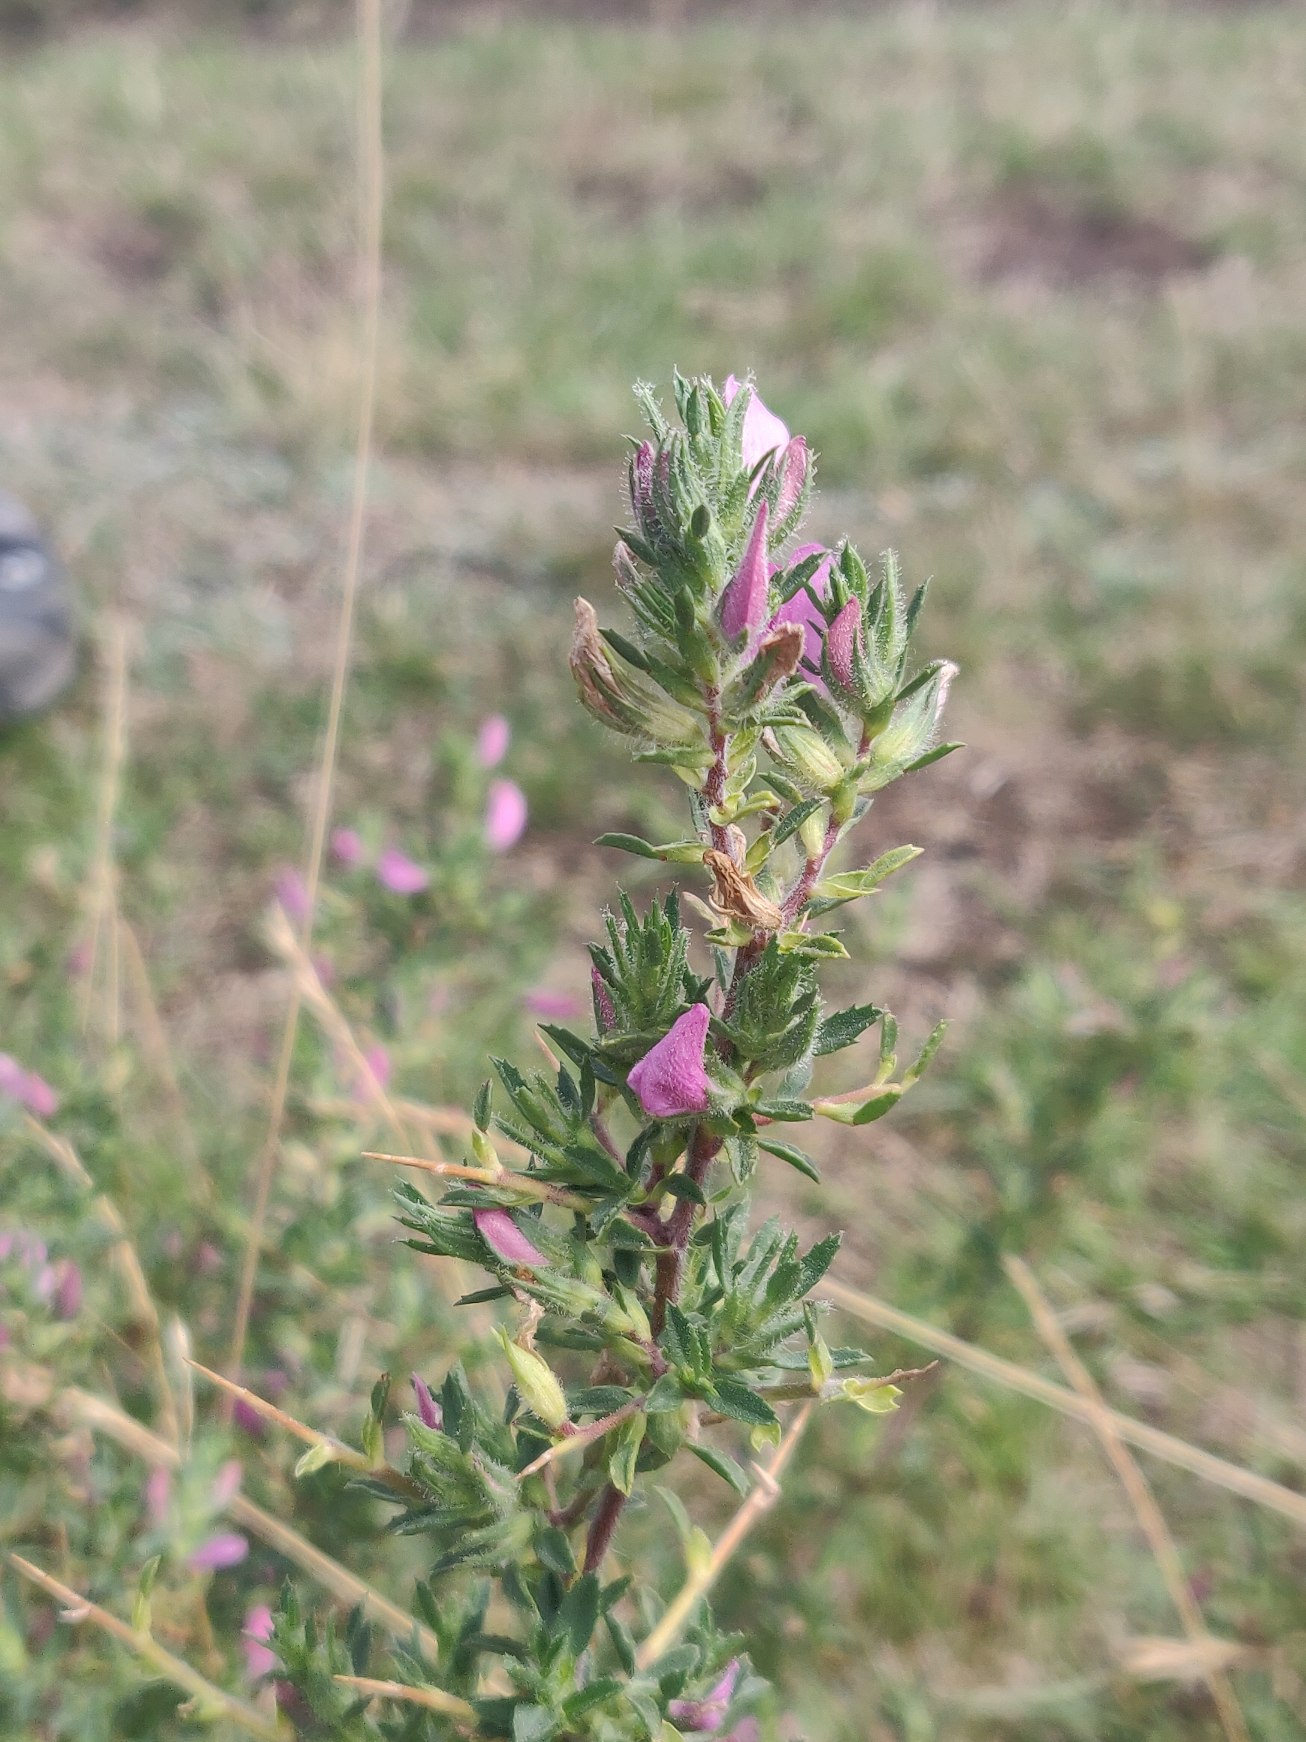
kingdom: Plantae
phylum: Tracheophyta
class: Magnoliopsida
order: Fabales
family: Fabaceae
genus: Ononis
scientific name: Ononis spinosa
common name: Strand-krageklo
